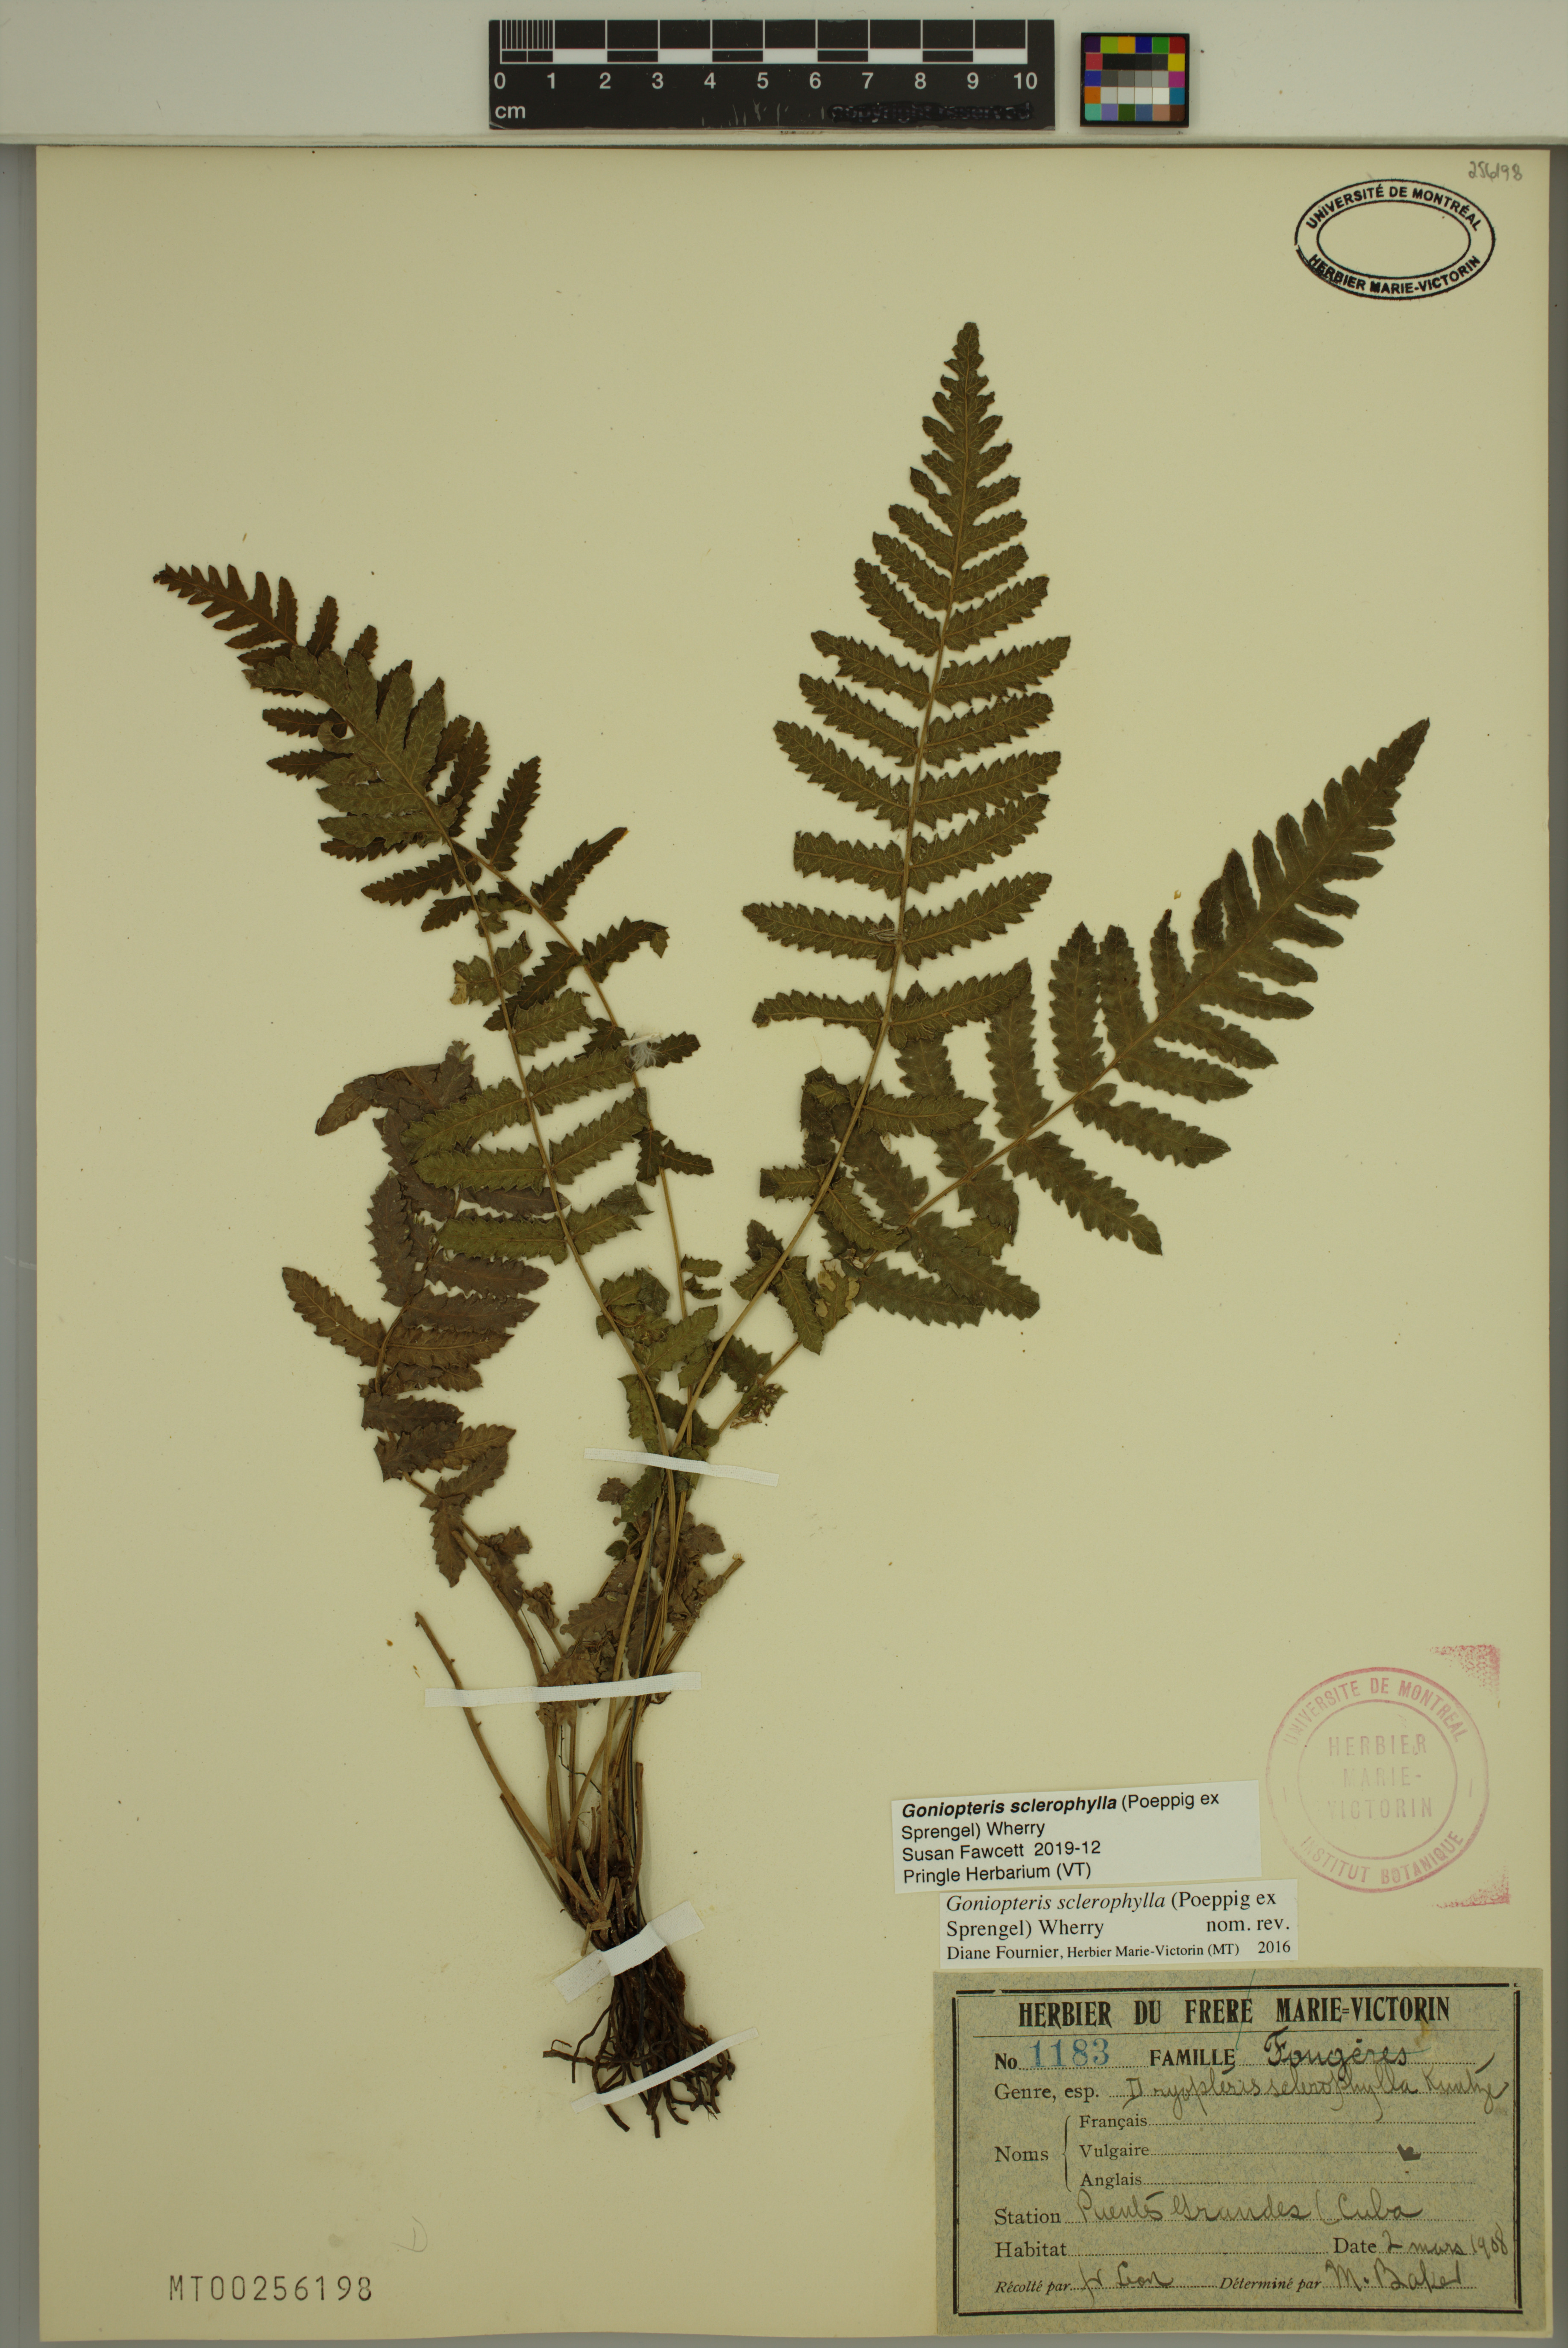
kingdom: Plantae
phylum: Tracheophyta
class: Polypodiopsida
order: Polypodiales
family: Thelypteridaceae
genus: Goniopteris
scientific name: Goniopteris sclerophylla
